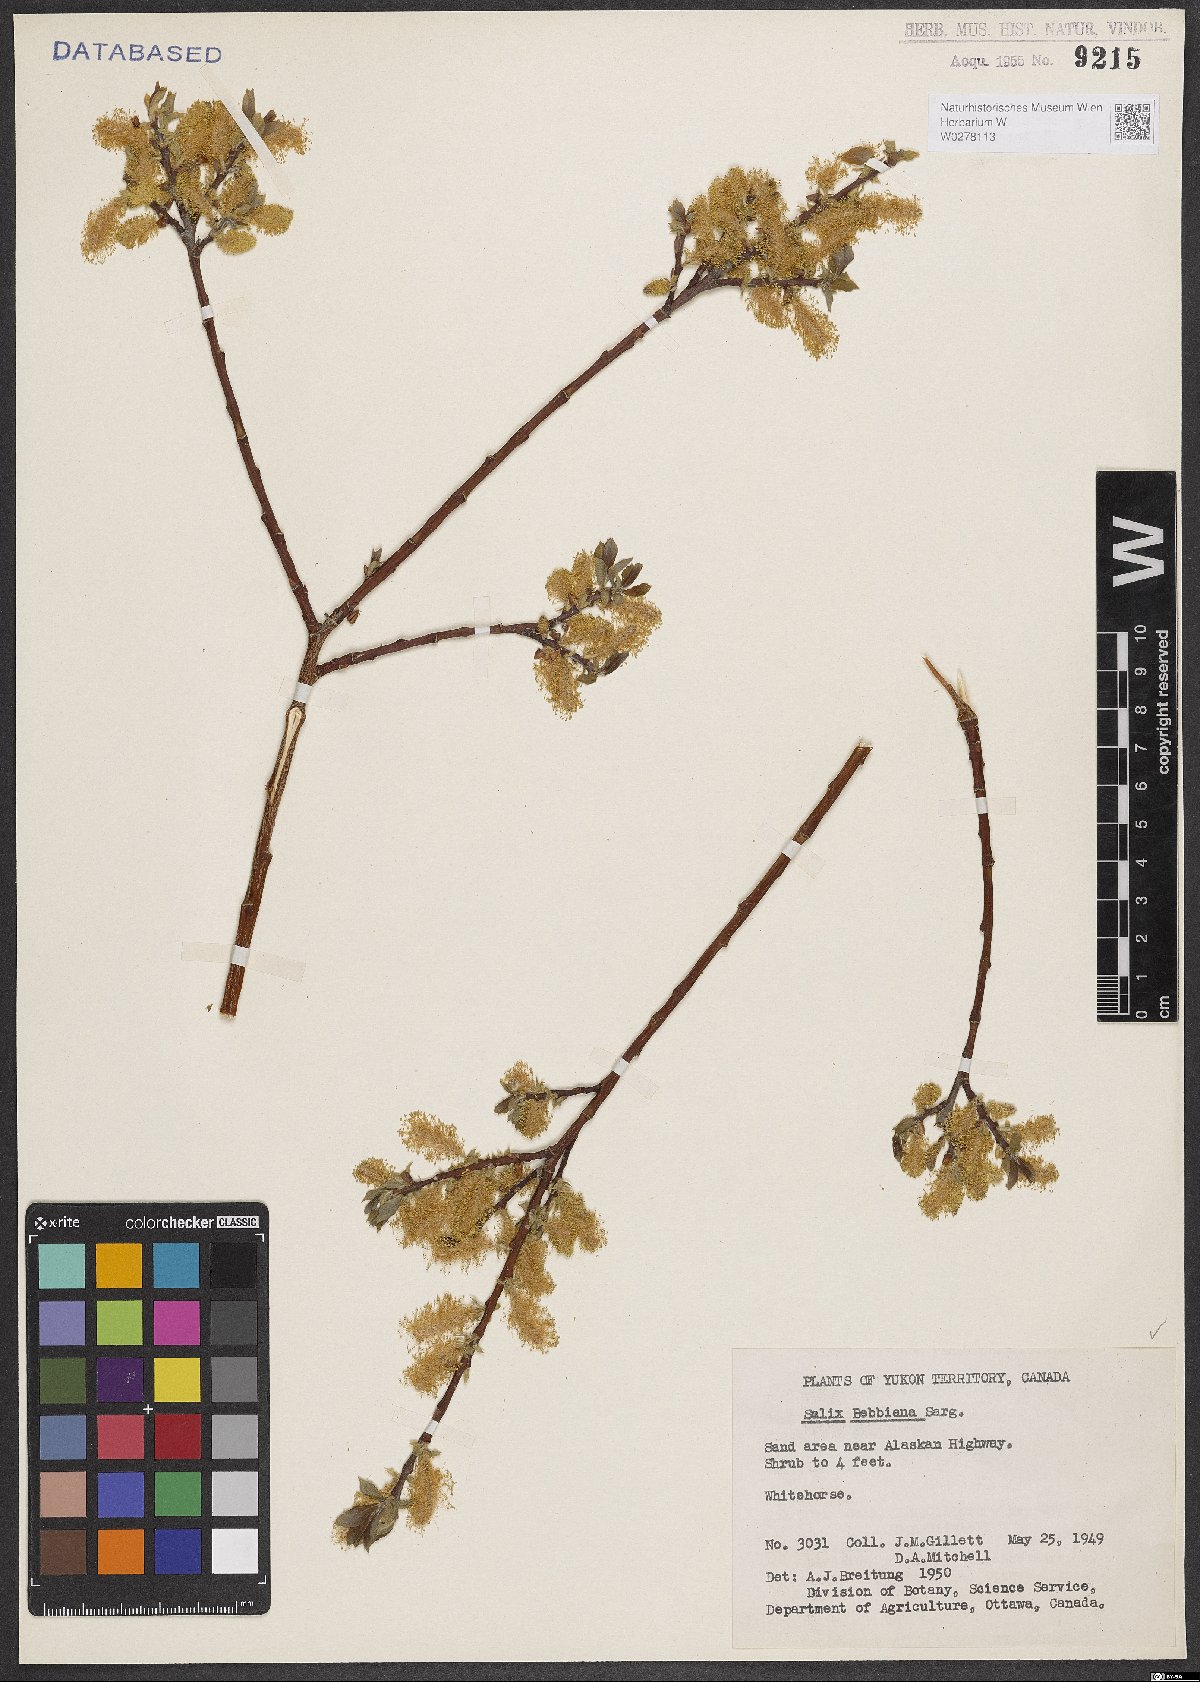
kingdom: Plantae
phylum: Tracheophyta
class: Magnoliopsida
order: Malpighiales
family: Salicaceae
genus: Salix
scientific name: Salix bebbiana
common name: Bebb's willow
